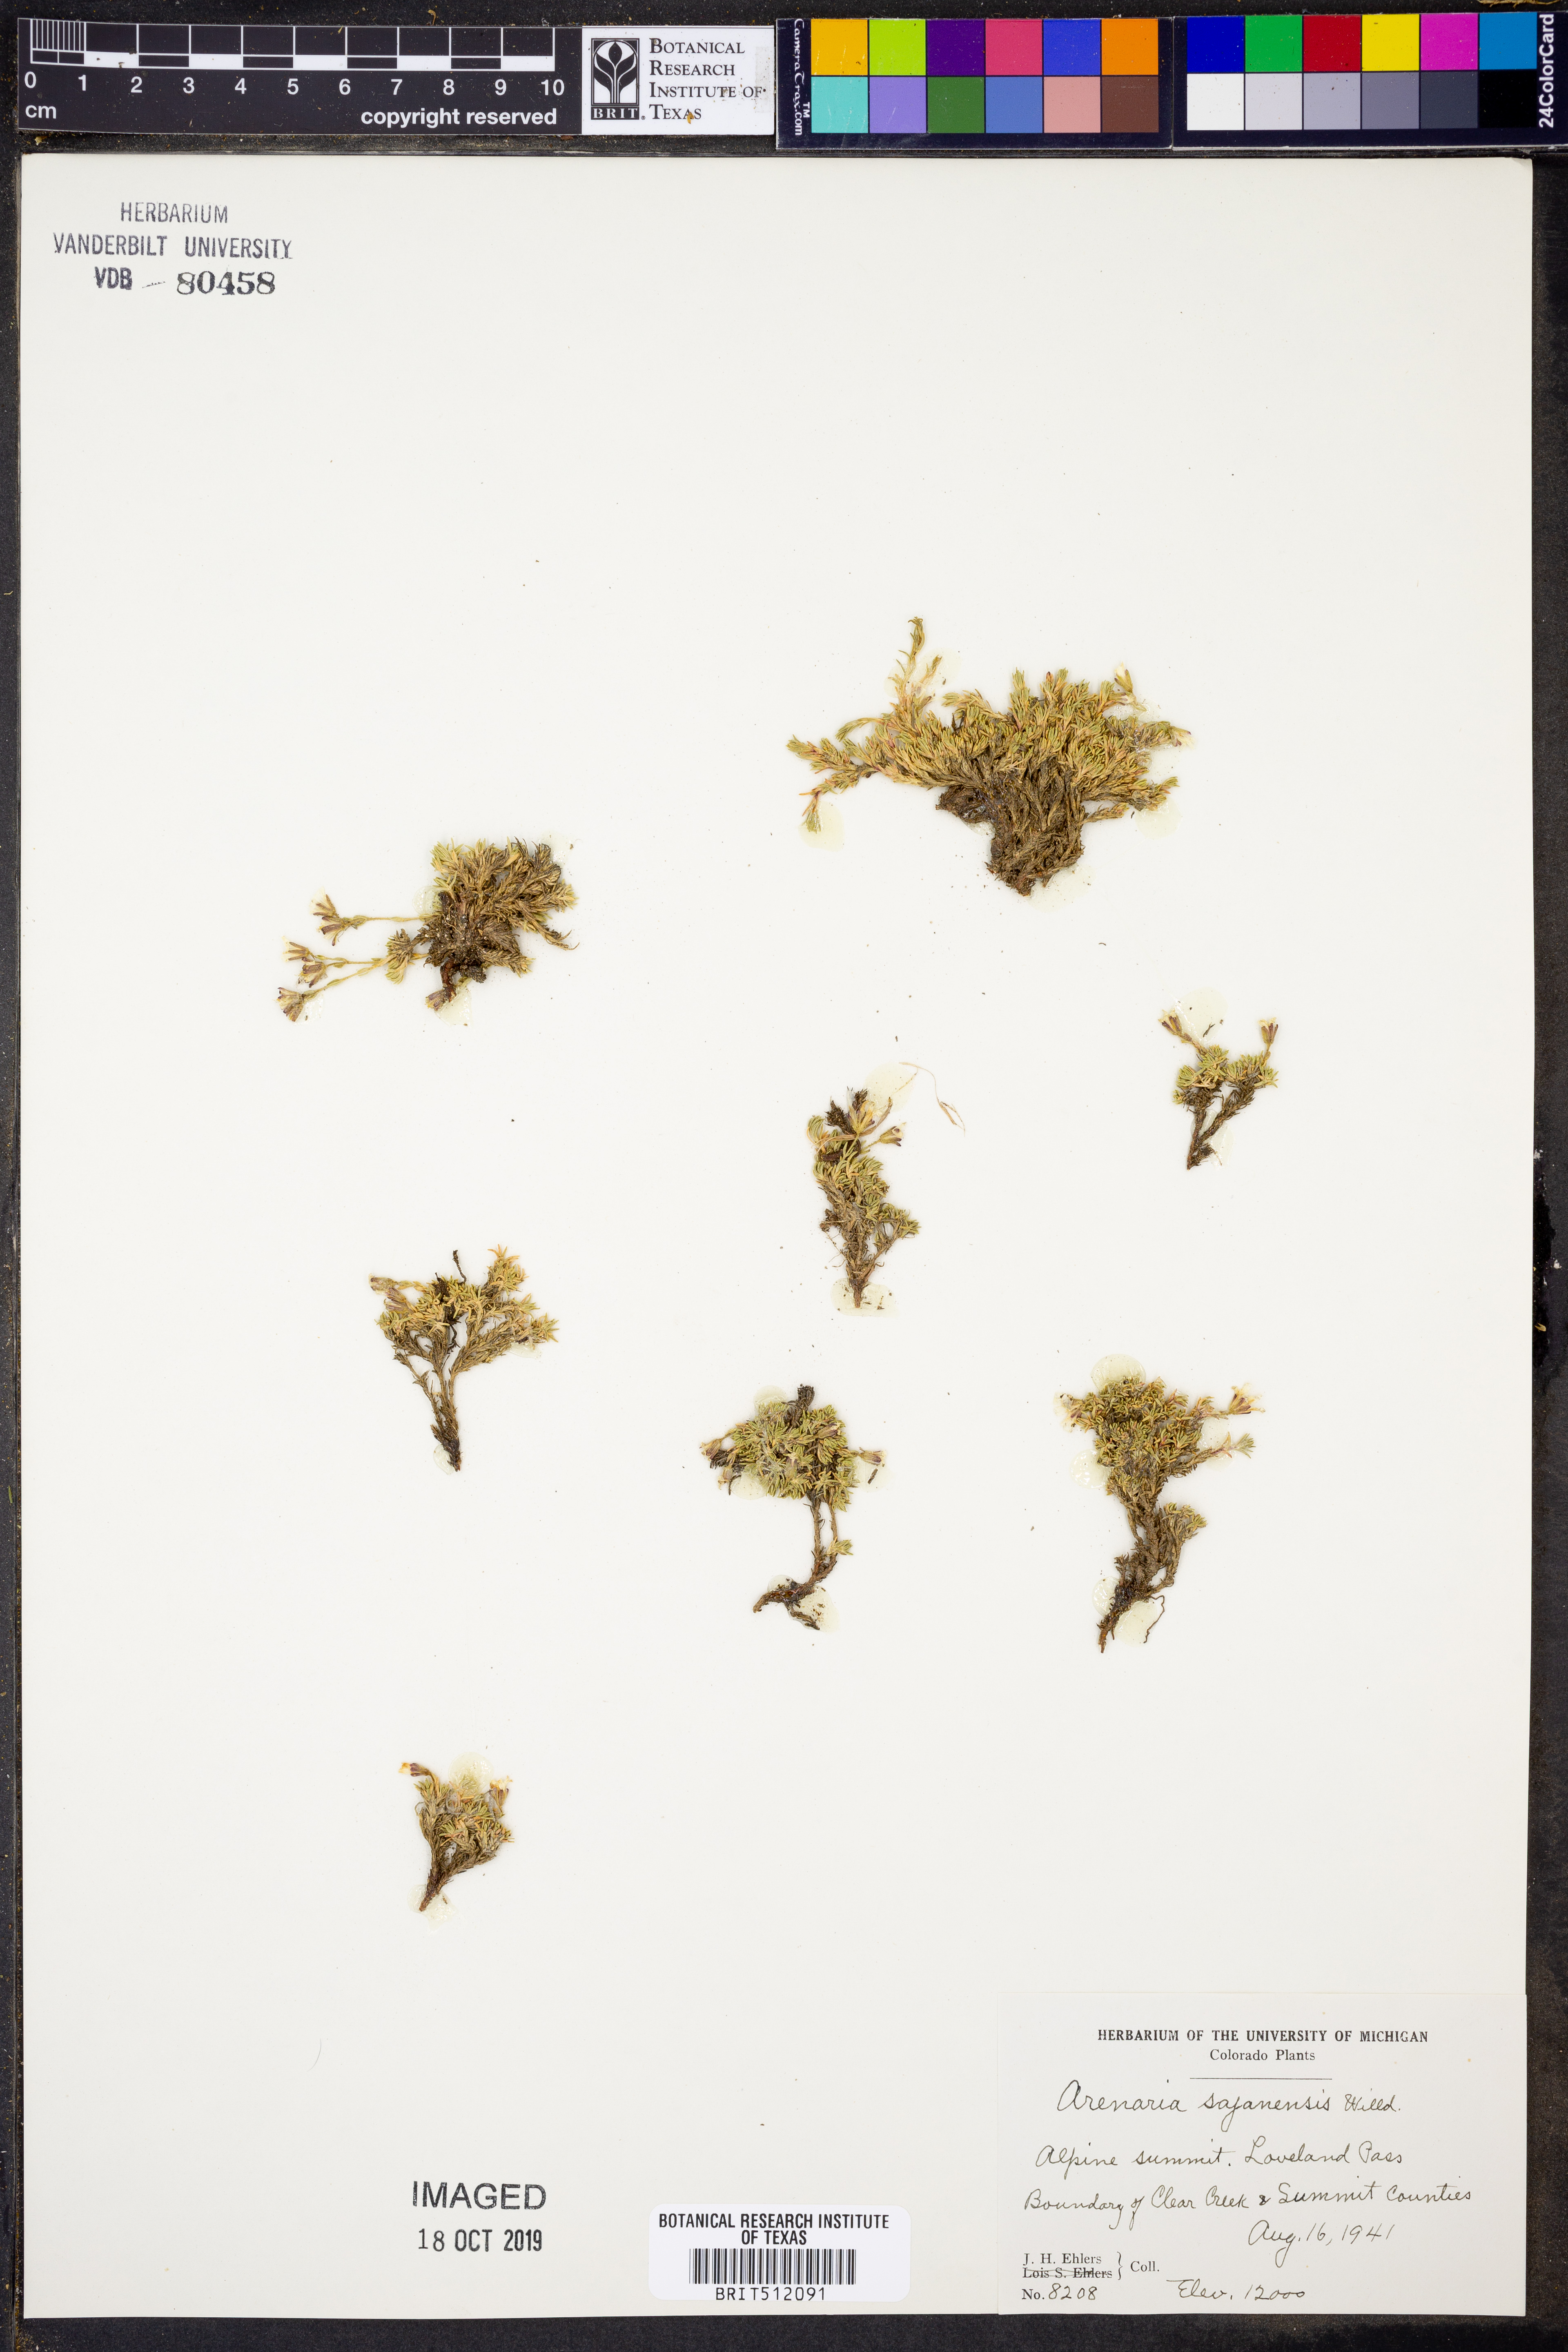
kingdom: Plantae
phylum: Tracheophyta
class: Magnoliopsida
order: Caryophyllales
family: Caryophyllaceae
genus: Cherleria
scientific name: Cherleria biflora
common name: Mountain sandwort
